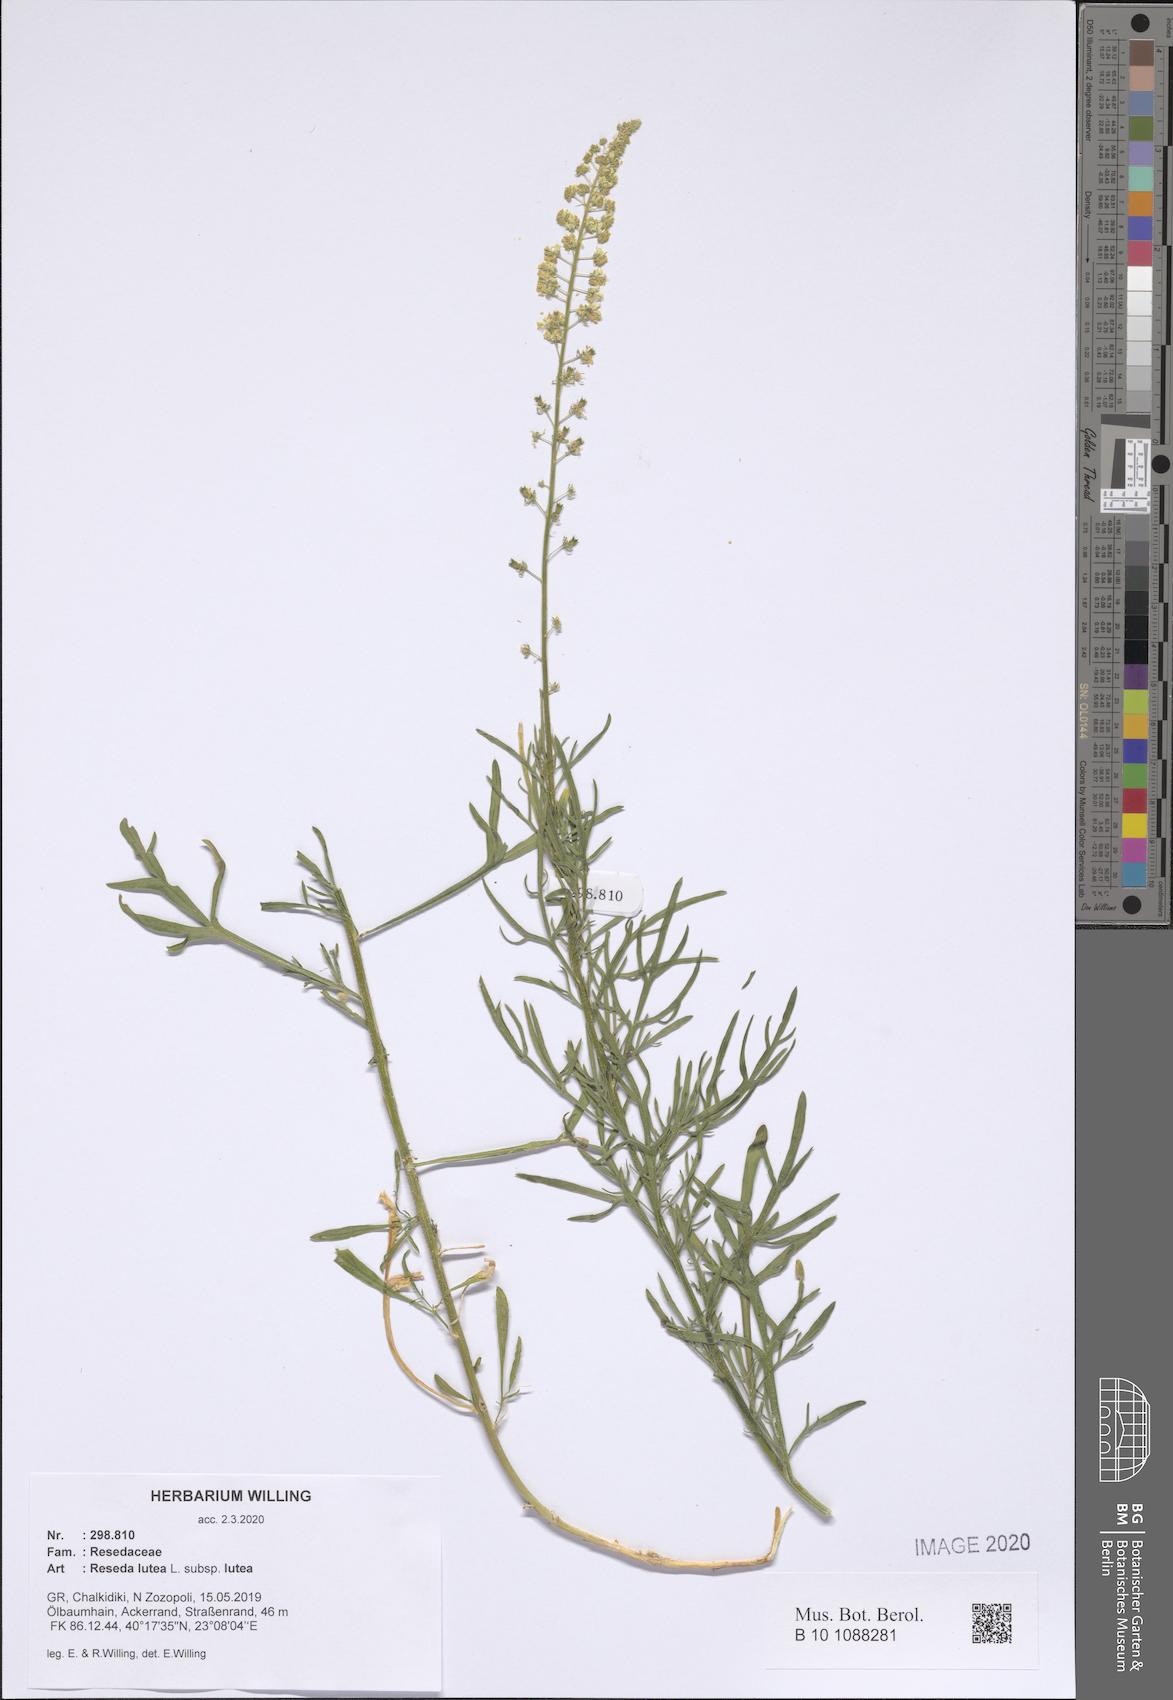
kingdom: Plantae
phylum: Tracheophyta
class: Magnoliopsida
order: Brassicales
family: Resedaceae
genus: Reseda
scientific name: Reseda lutea
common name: Wild mignonette
